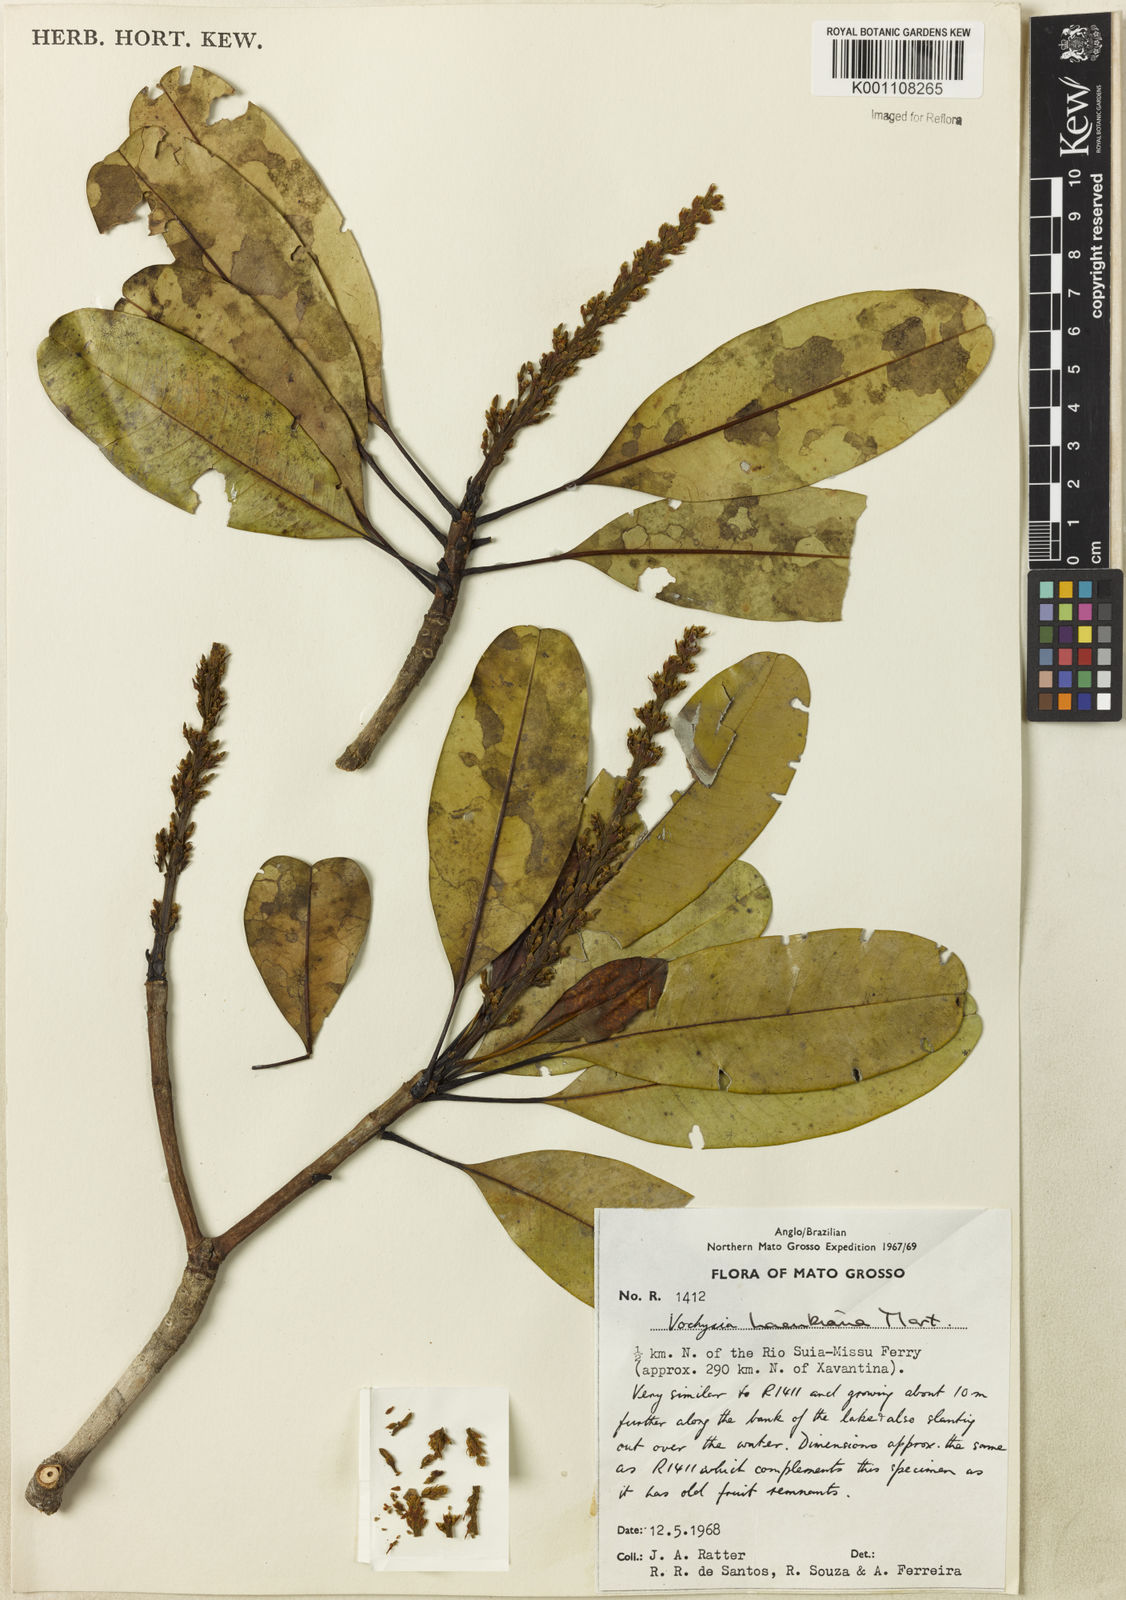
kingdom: Plantae
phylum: Tracheophyta
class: Magnoliopsida
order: Myrtales
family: Vochysiaceae
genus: Vochysia
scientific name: Vochysia haenkeana
